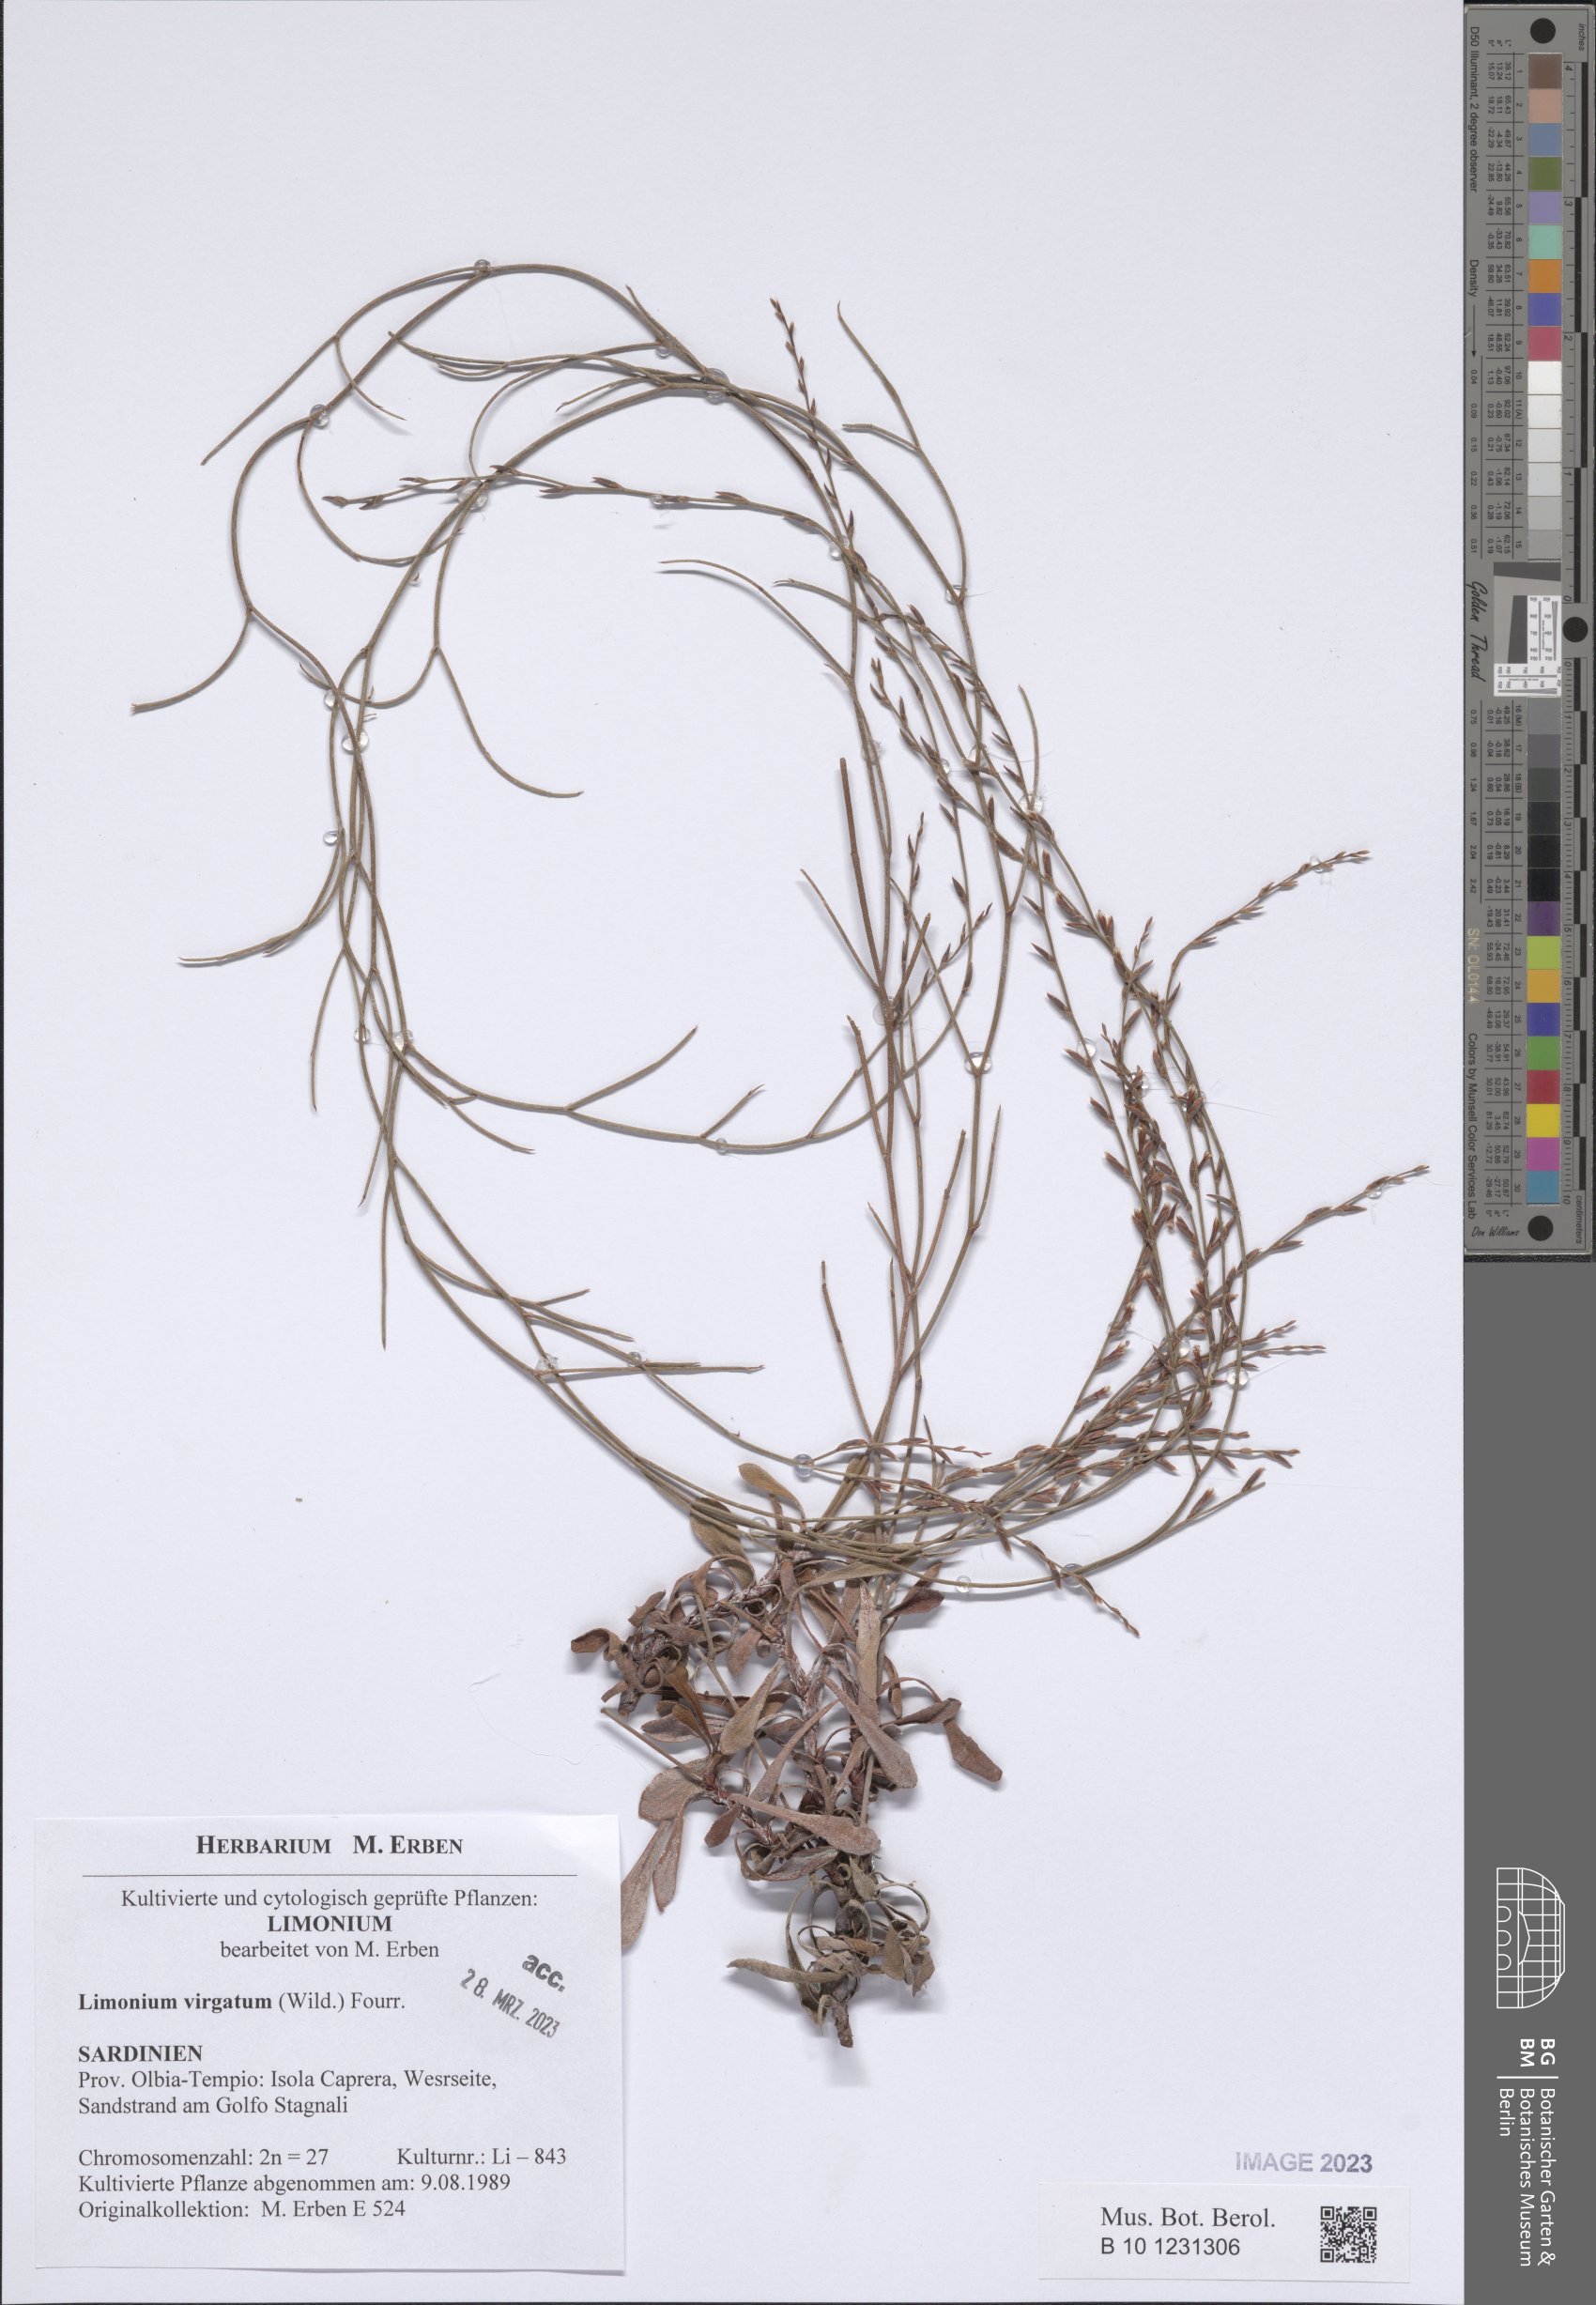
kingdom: Plantae
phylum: Tracheophyta
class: Magnoliopsida
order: Caryophyllales
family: Plumbaginaceae
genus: Limonium
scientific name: Limonium virgatum
